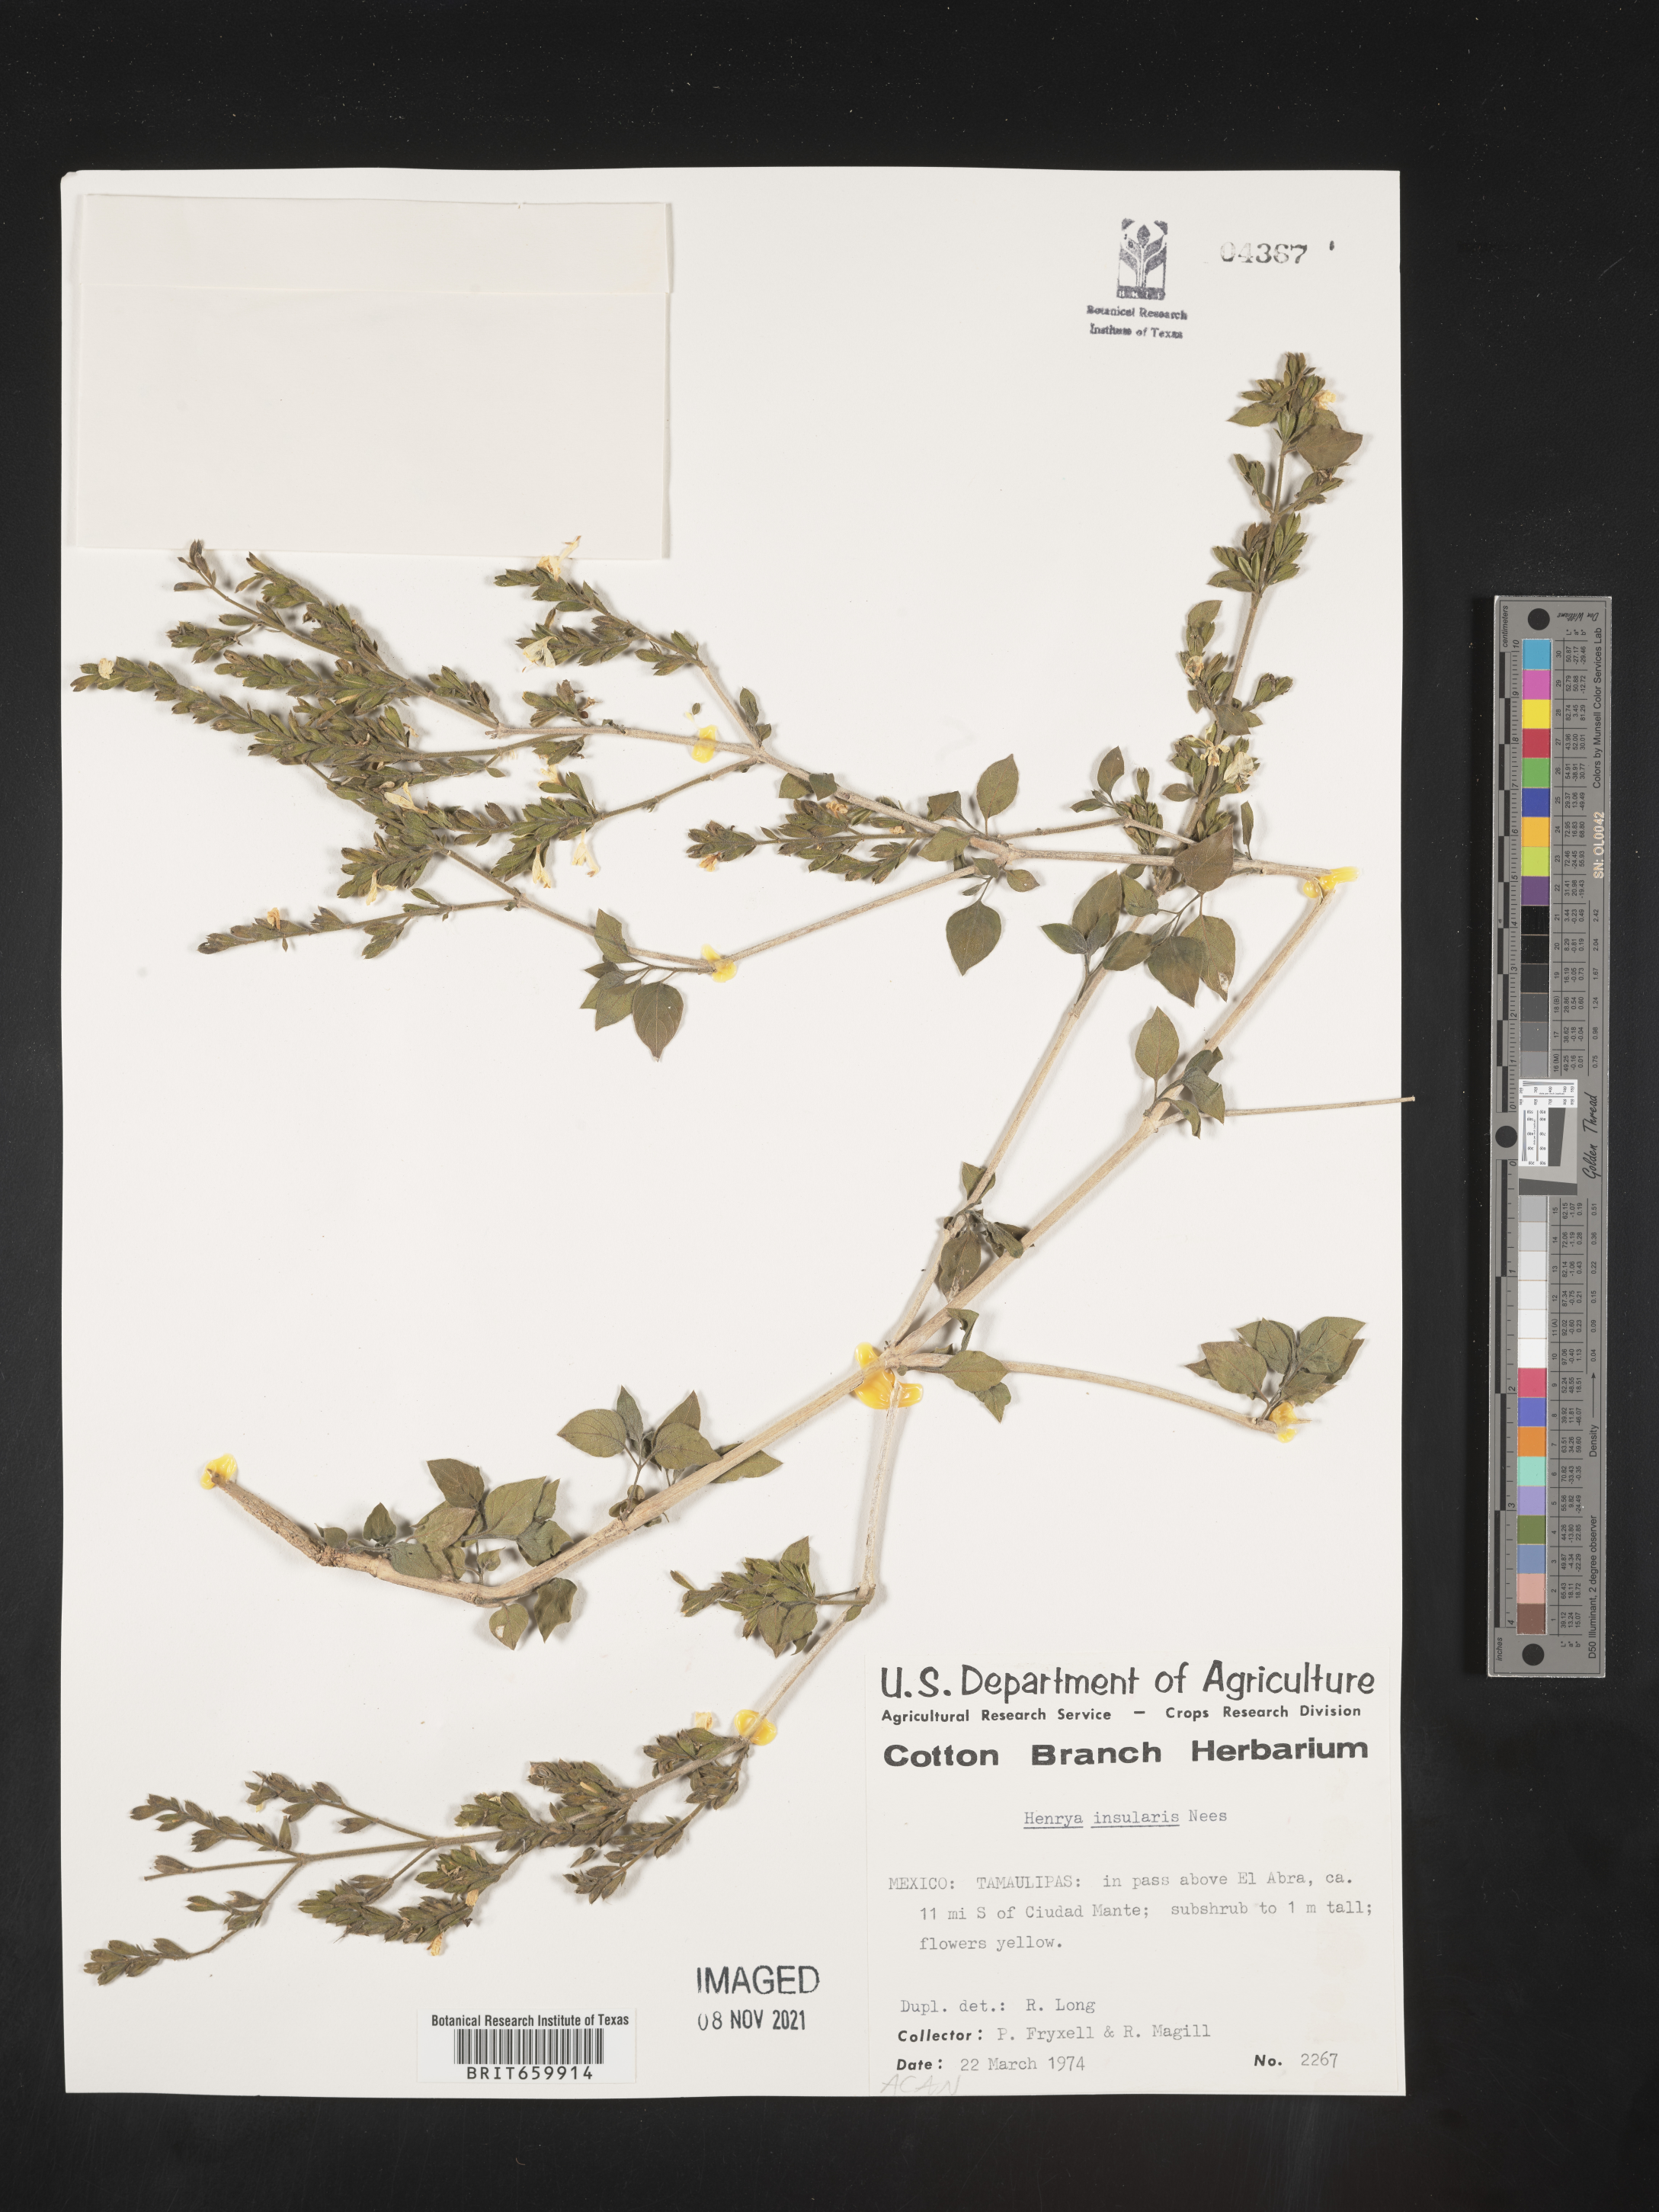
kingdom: Plantae
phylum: Tracheophyta
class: Magnoliopsida
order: Lamiales
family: Acanthaceae
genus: Henrya
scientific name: Henrya
